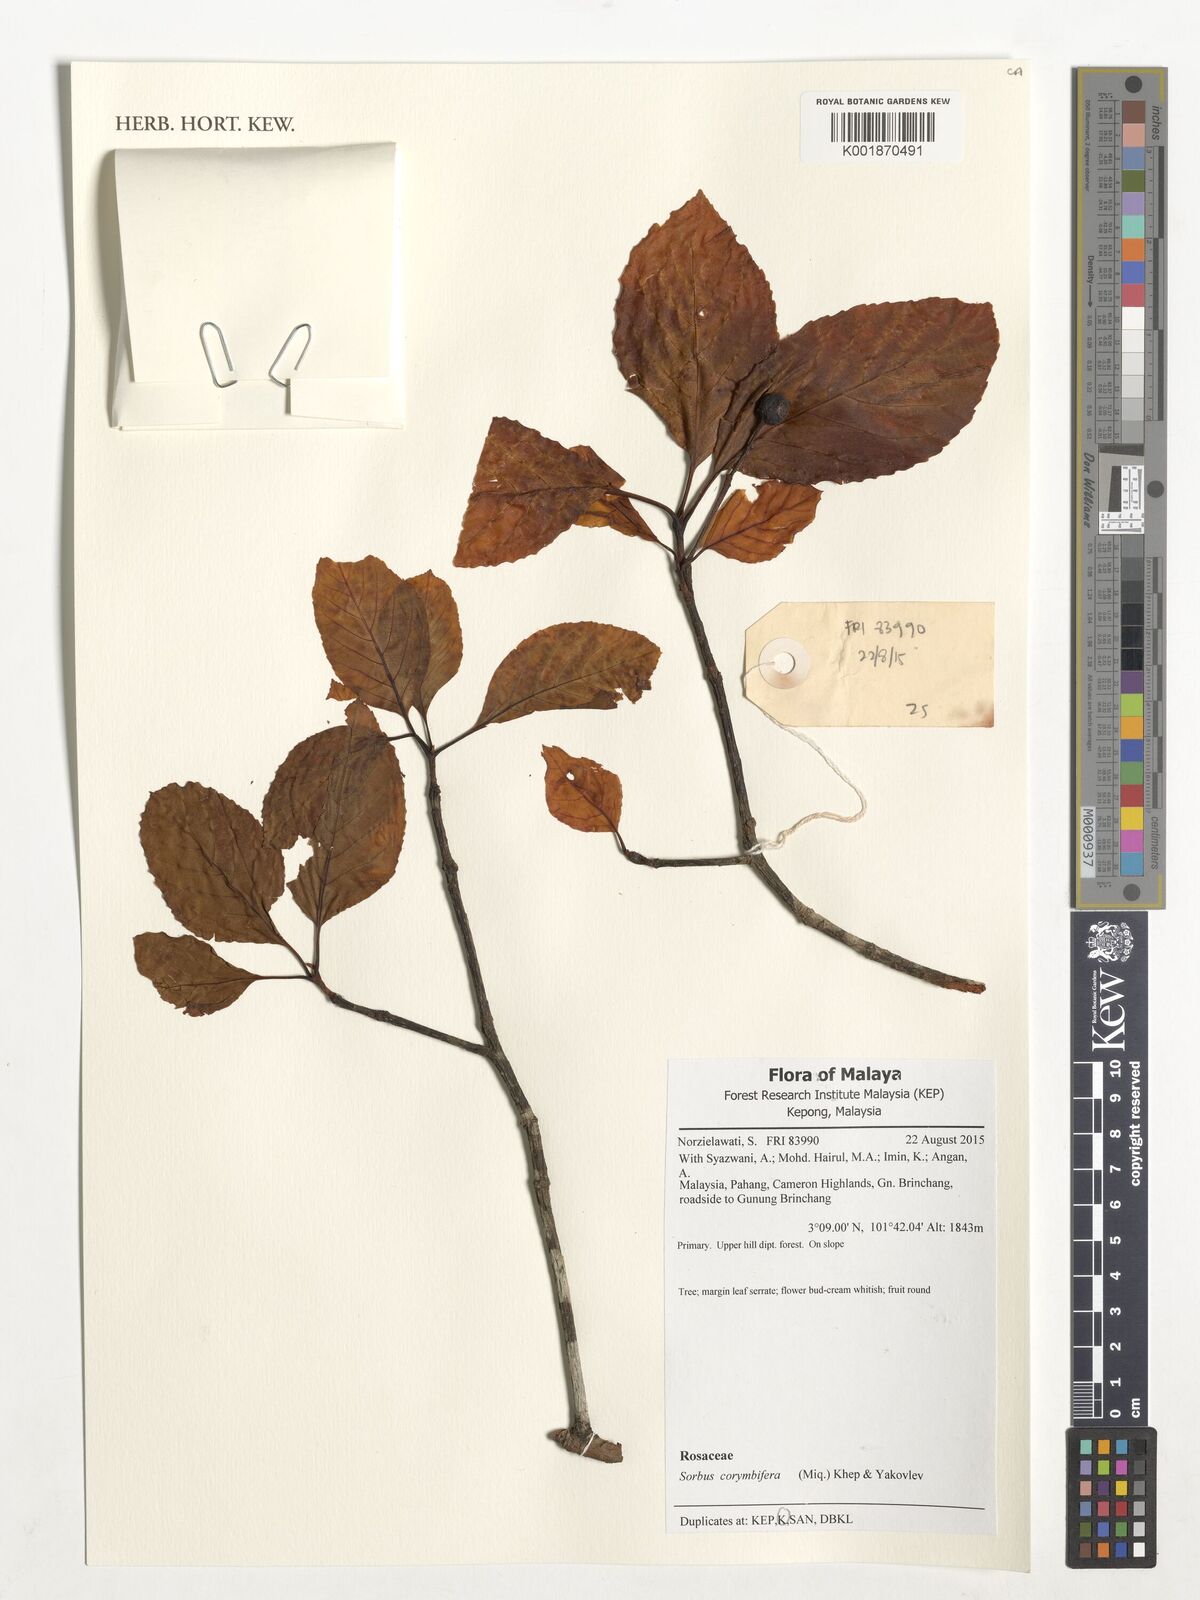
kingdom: Plantae
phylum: Tracheophyta
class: Magnoliopsida
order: Rosales
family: Rosaceae
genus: Sorbus
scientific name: Sorbus corymbifera
